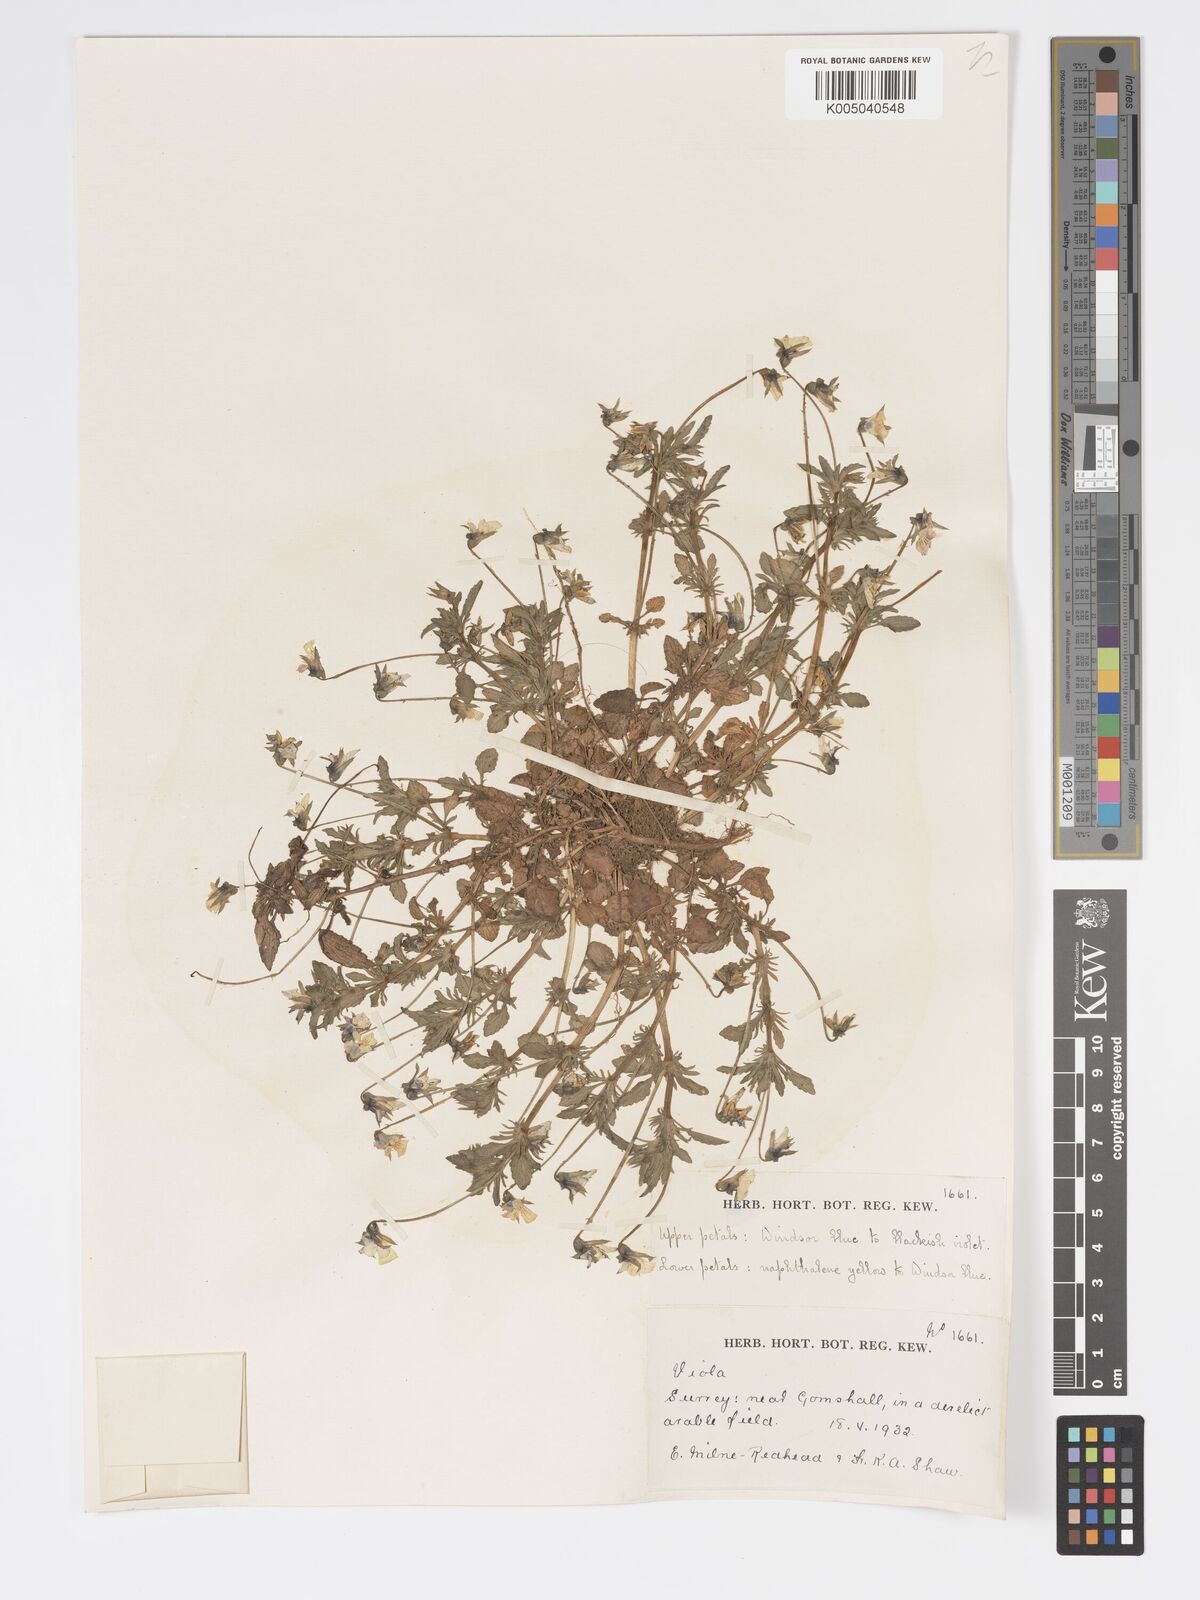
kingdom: Plantae
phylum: Tracheophyta
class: Magnoliopsida
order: Malpighiales
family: Violaceae
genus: Viola
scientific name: Viola
